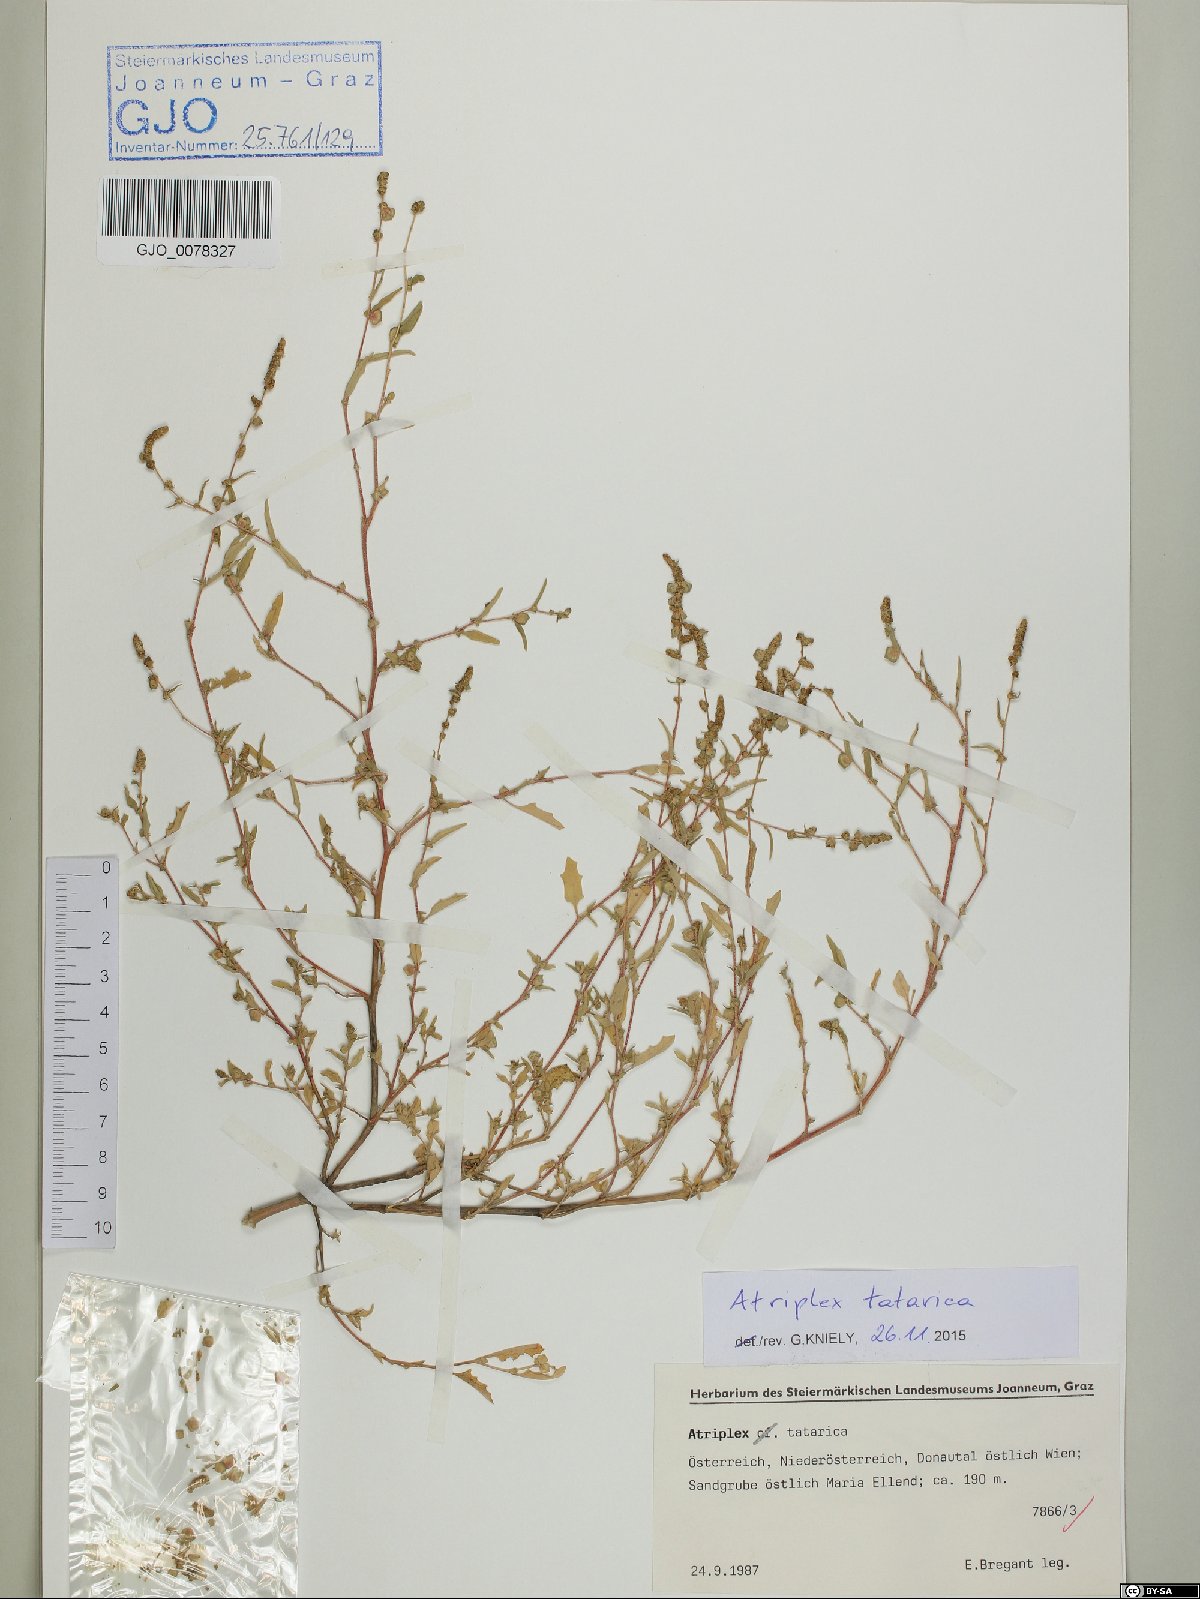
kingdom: Plantae
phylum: Tracheophyta
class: Magnoliopsida
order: Caryophyllales
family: Amaranthaceae
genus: Atriplex
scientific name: Atriplex tatarica
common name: Tatarian orache
